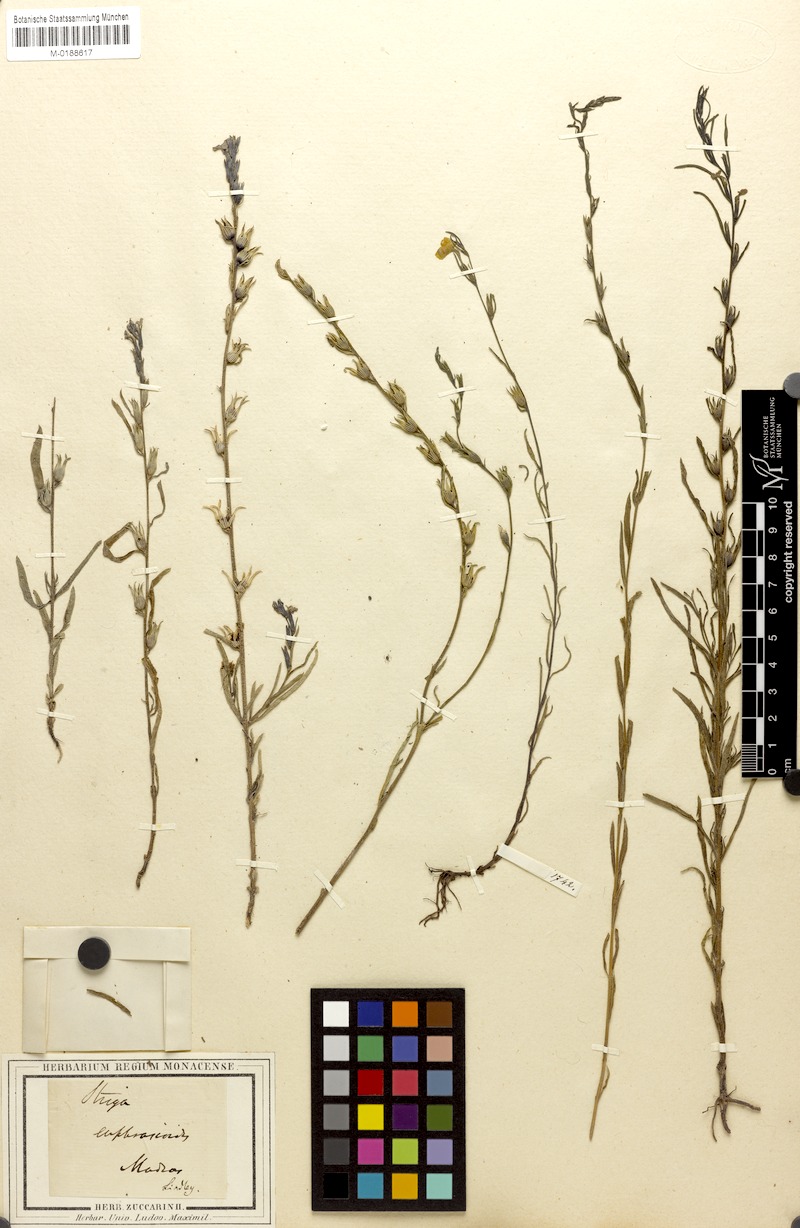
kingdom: Plantae
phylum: Tracheophyta
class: Magnoliopsida
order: Lamiales
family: Orobanchaceae
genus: Striga
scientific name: Striga angustifolia
